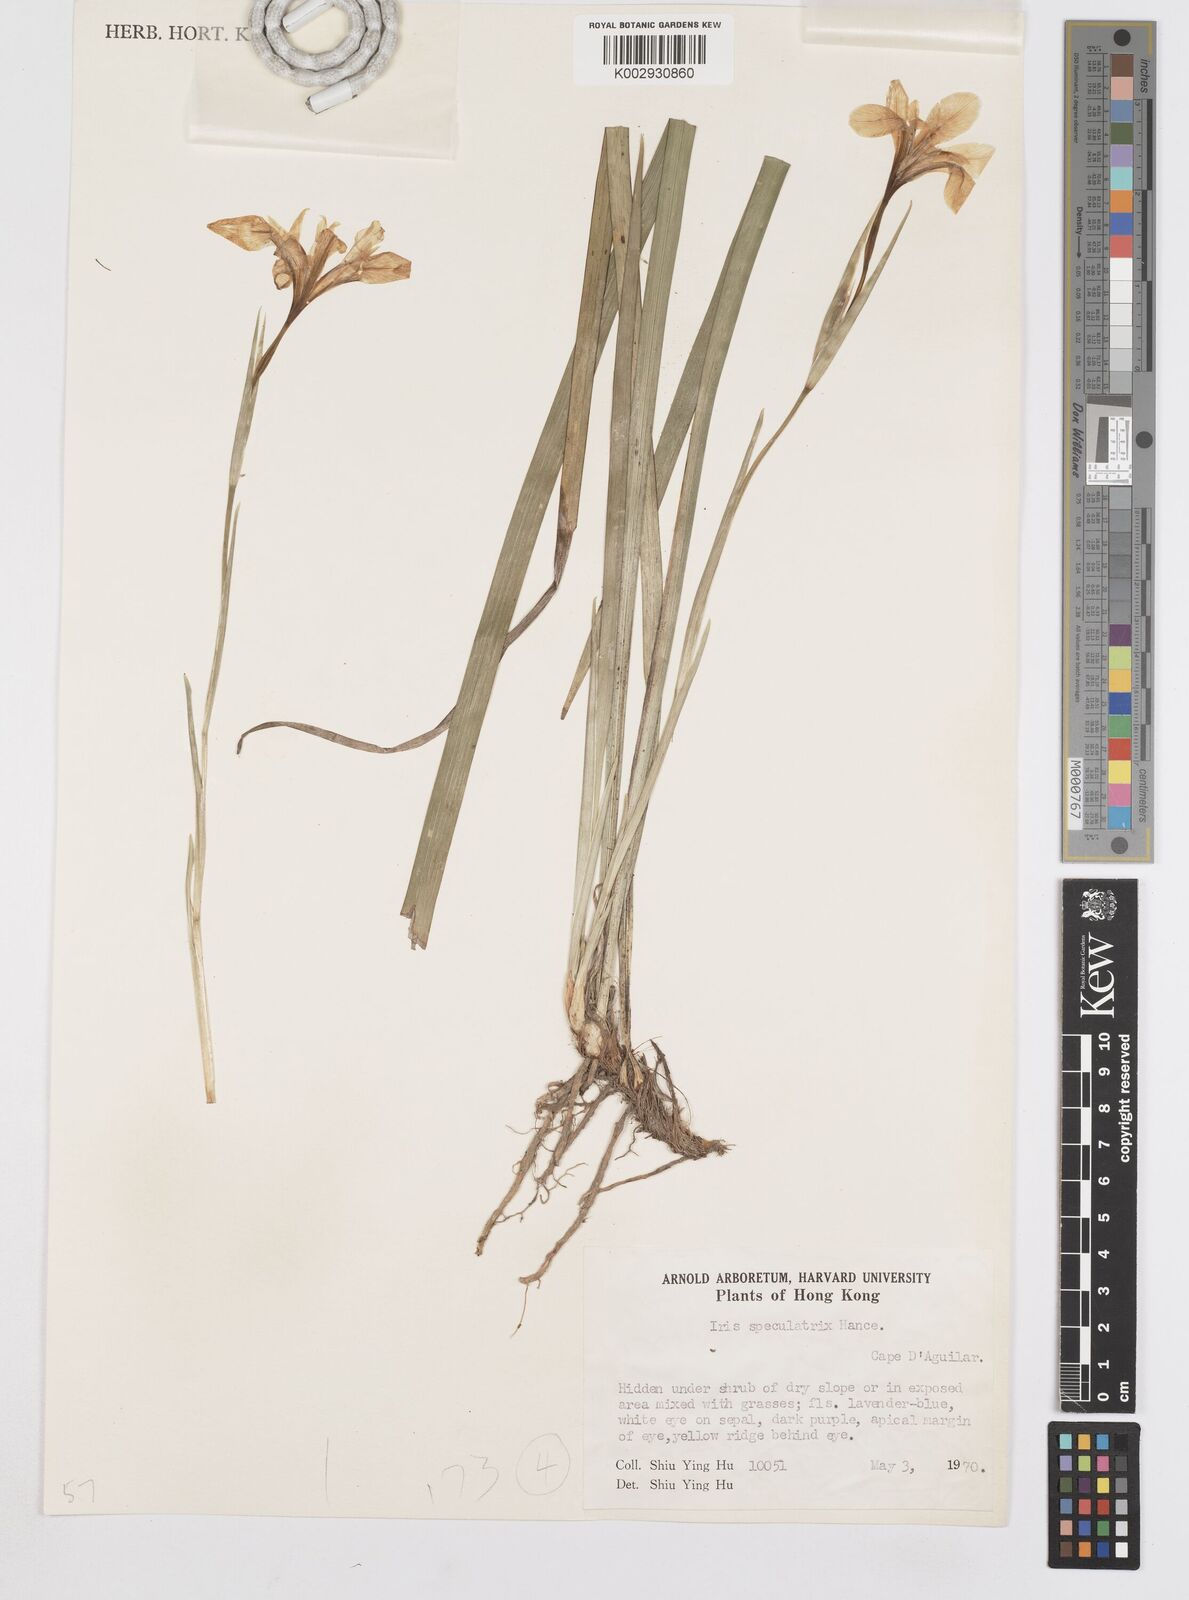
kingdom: Plantae
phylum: Tracheophyta
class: Liliopsida
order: Asparagales
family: Iridaceae
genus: Iris
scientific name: Iris speculatrix
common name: Small-flower iris
